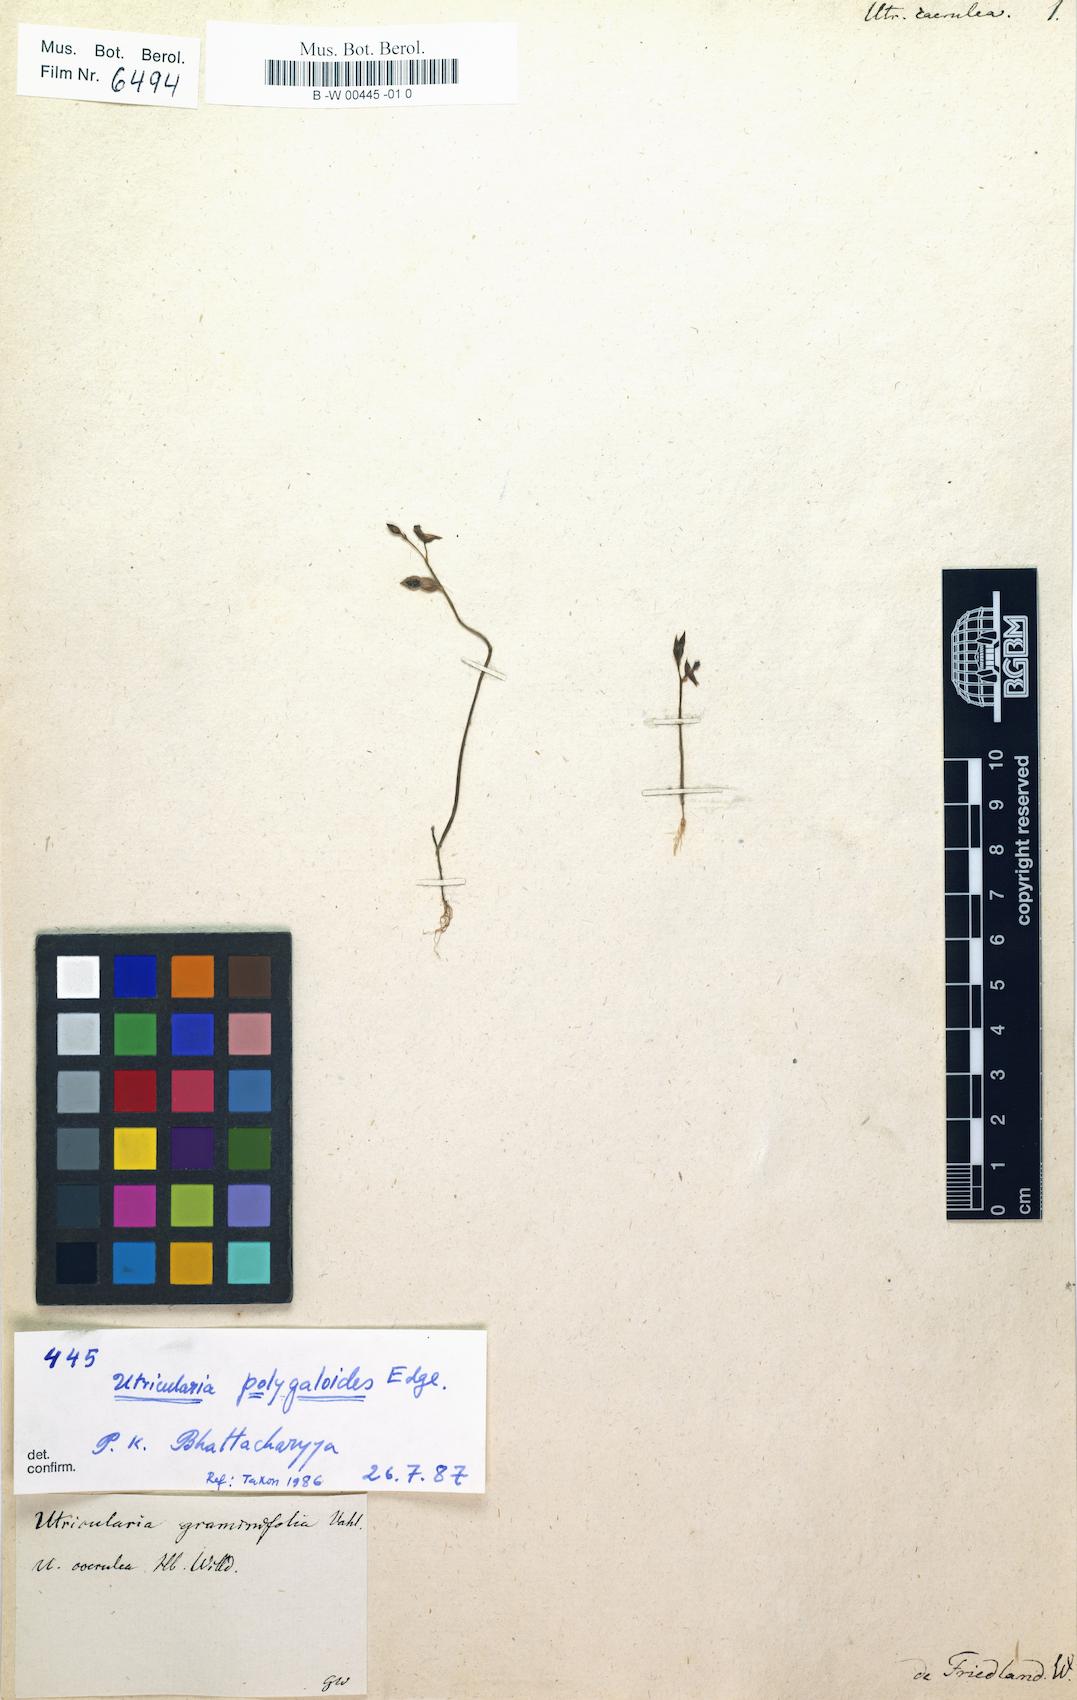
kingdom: Plantae
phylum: Tracheophyta
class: Magnoliopsida
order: Lamiales
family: Lentibulariaceae
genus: Utricularia
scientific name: Utricularia caerulea
